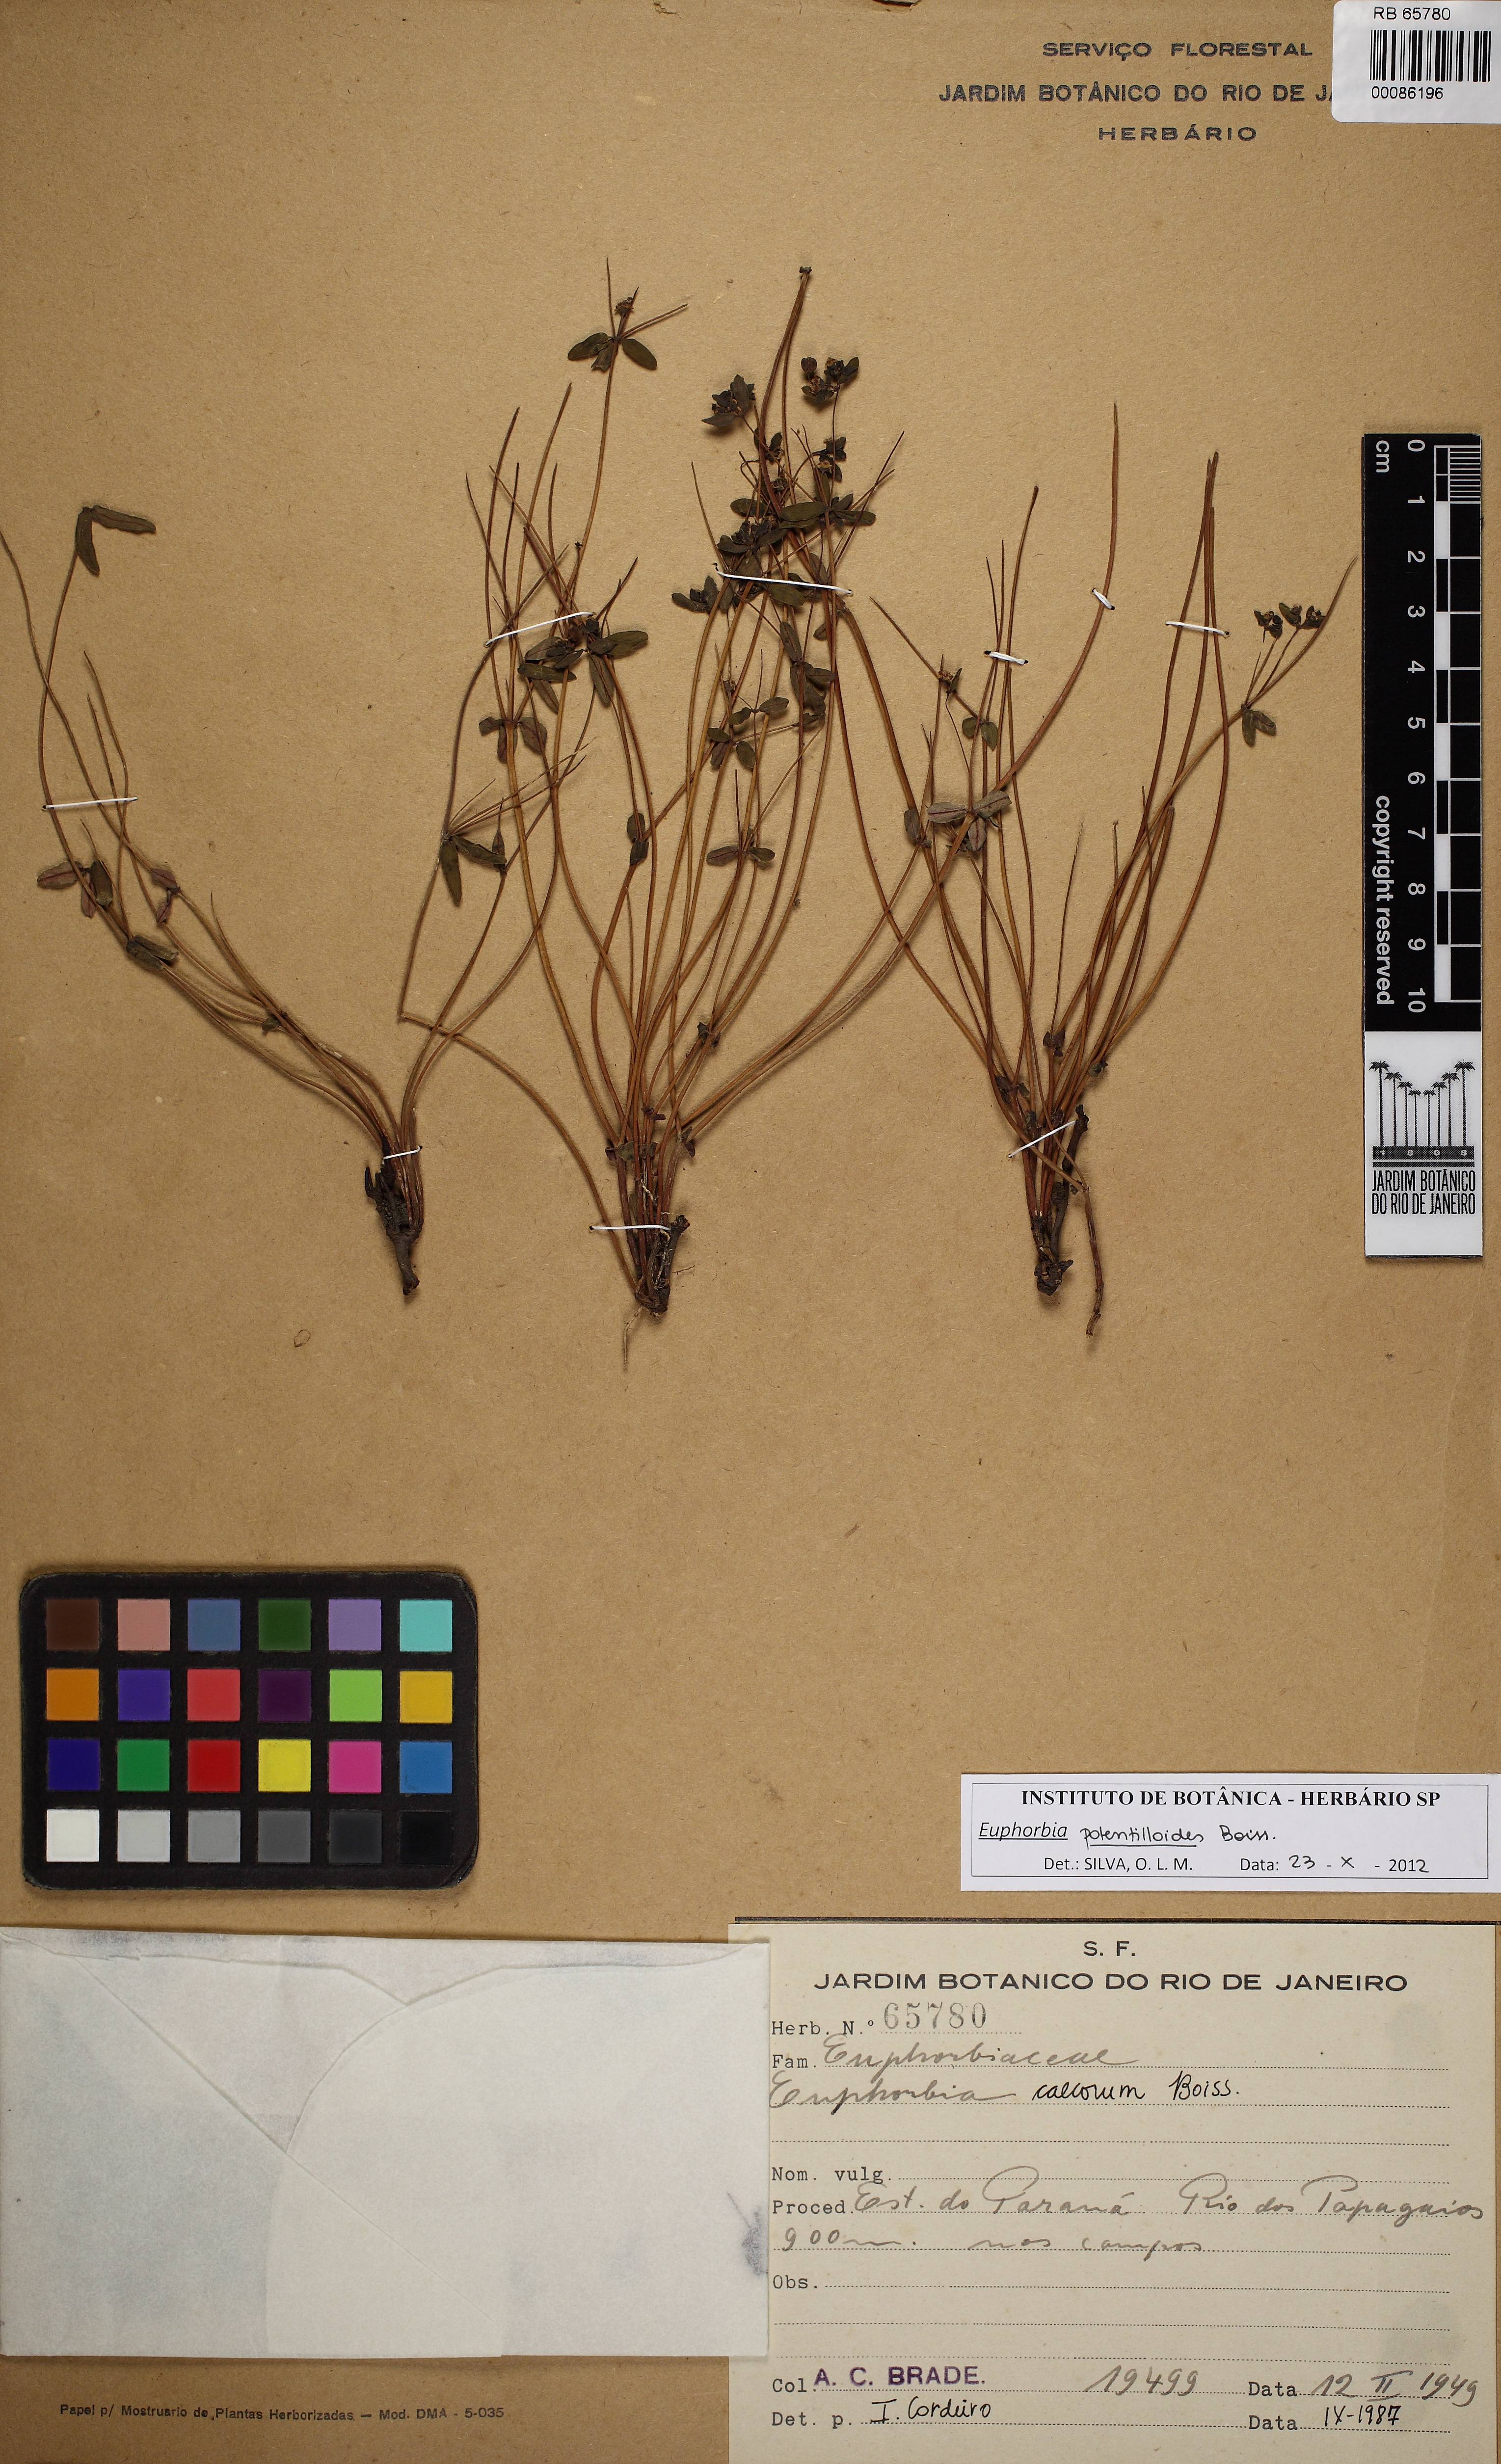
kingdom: Plantae
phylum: Tracheophyta
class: Magnoliopsida
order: Malpighiales
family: Euphorbiaceae
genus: Euphorbia
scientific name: Euphorbia potentilloides
